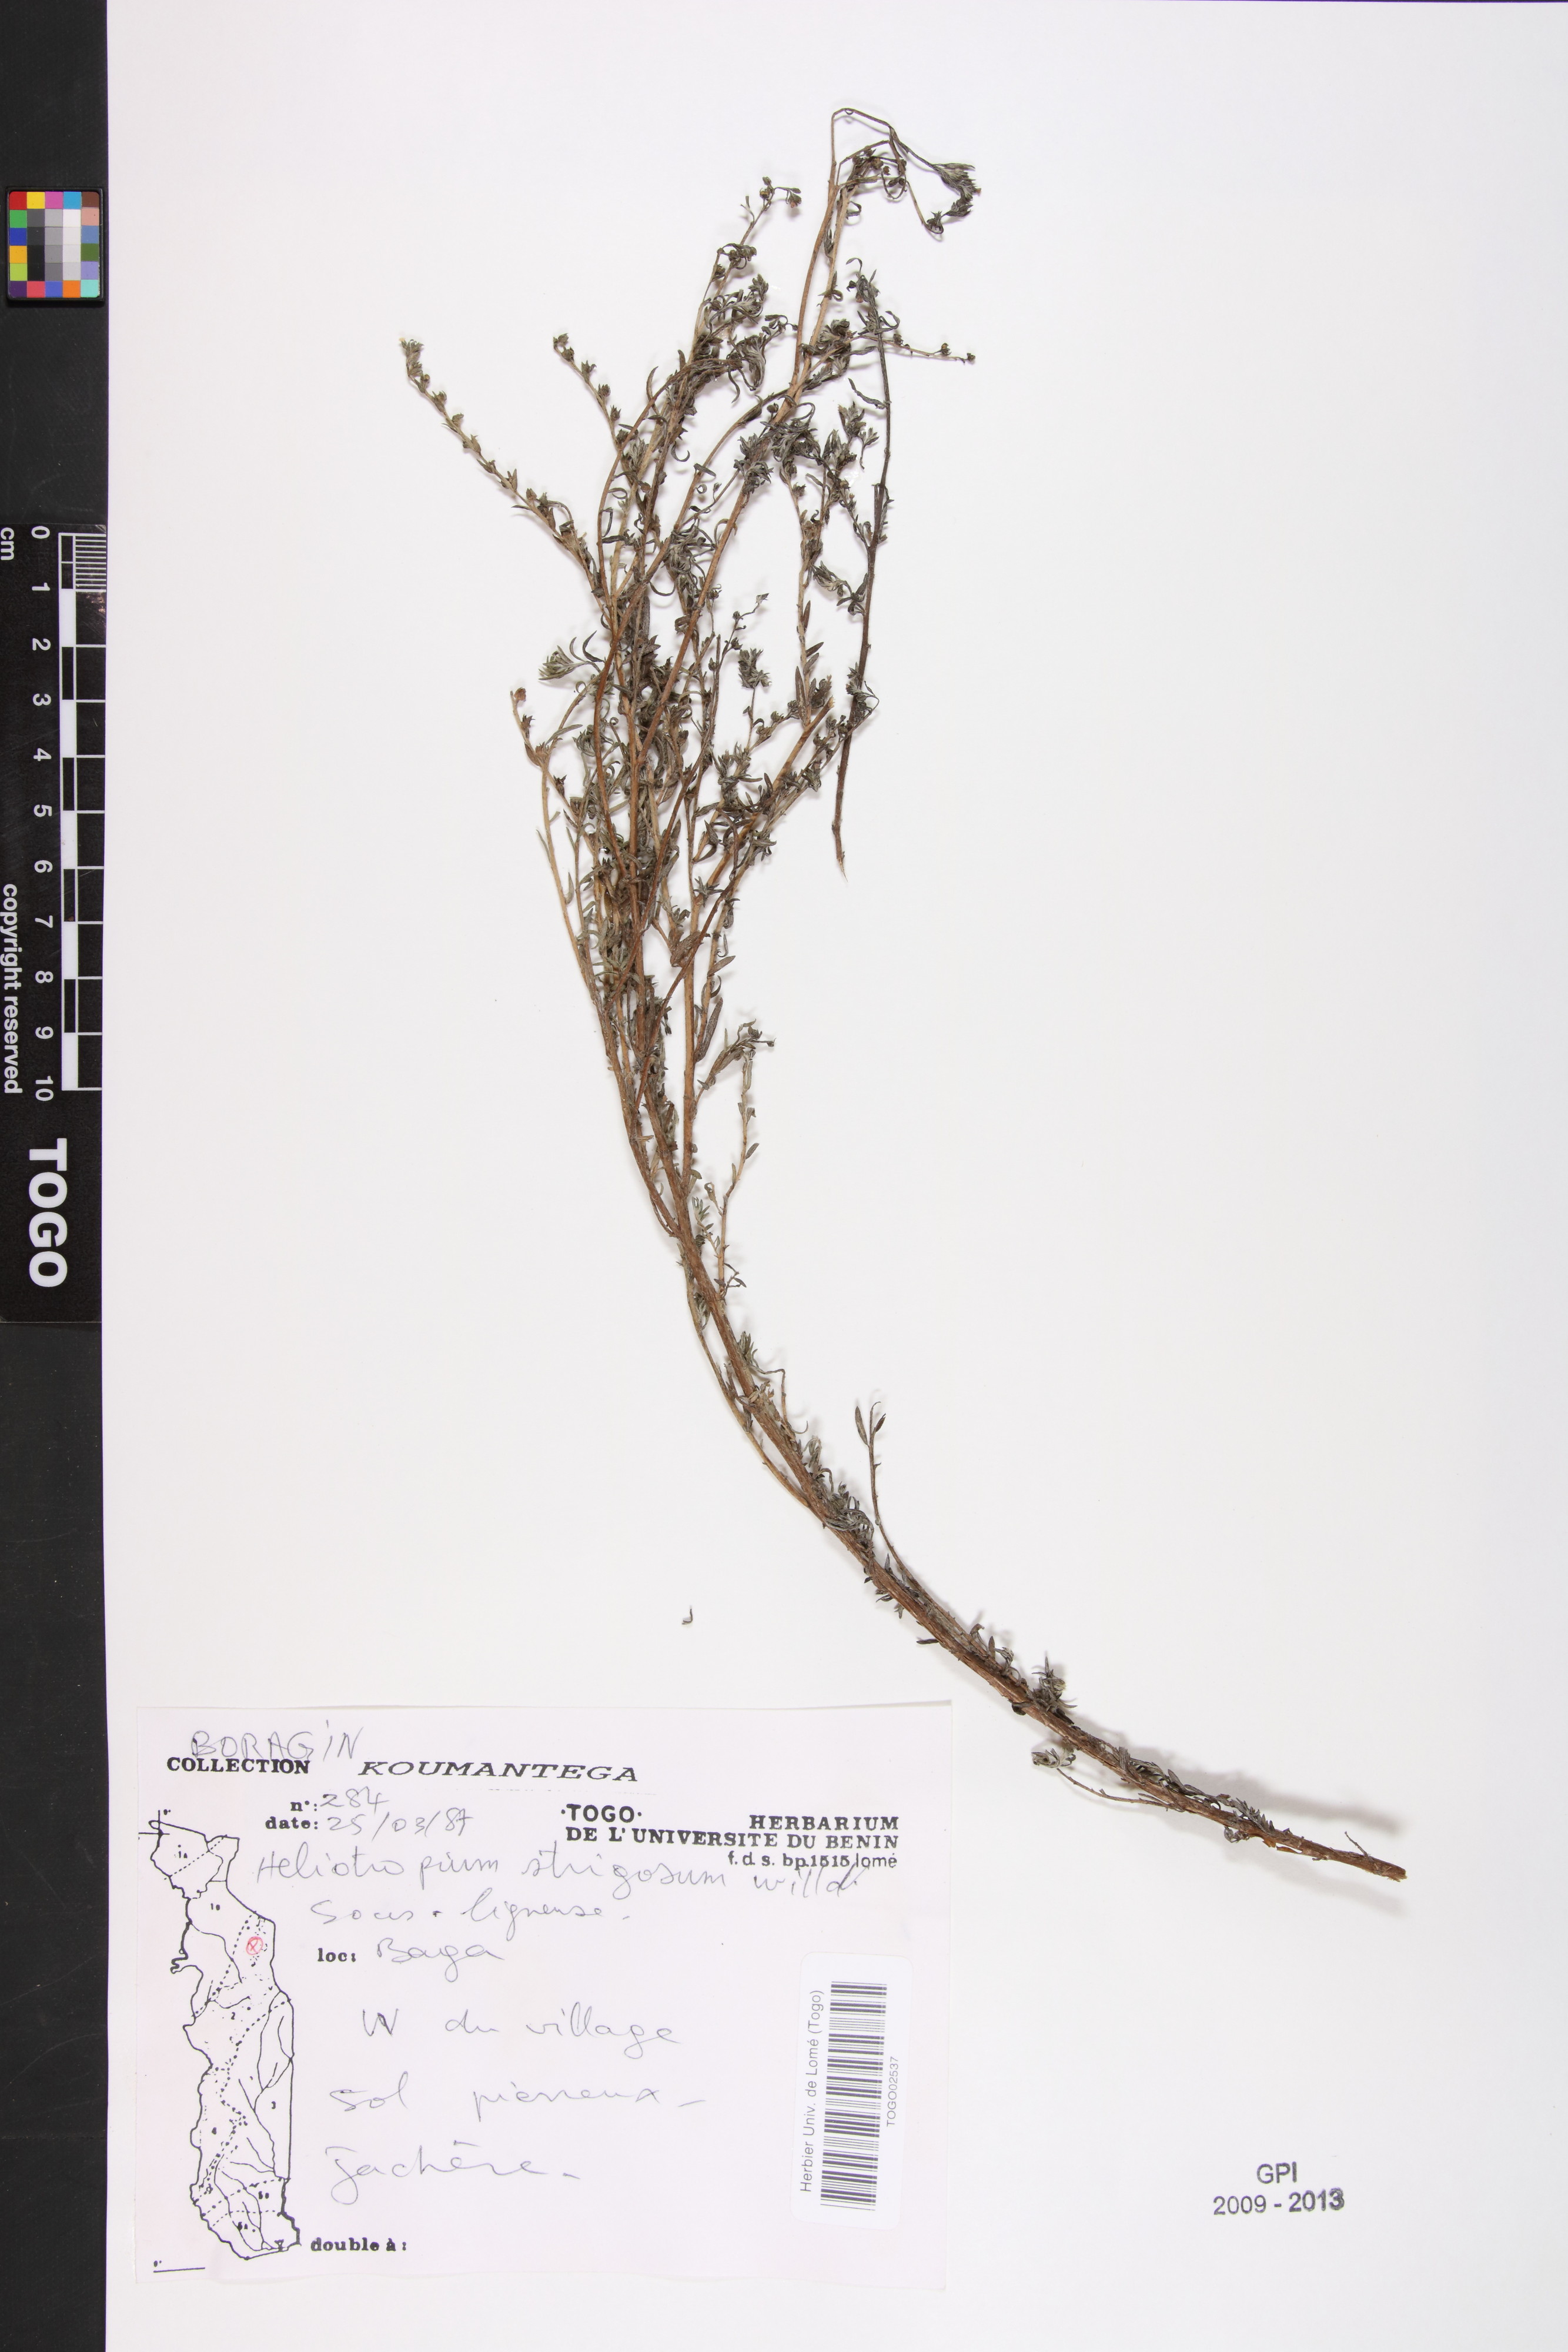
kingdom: Plantae
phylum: Tracheophyta
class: Magnoliopsida
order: Boraginales
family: Heliotropiaceae
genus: Euploca
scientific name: Euploca strigosa
